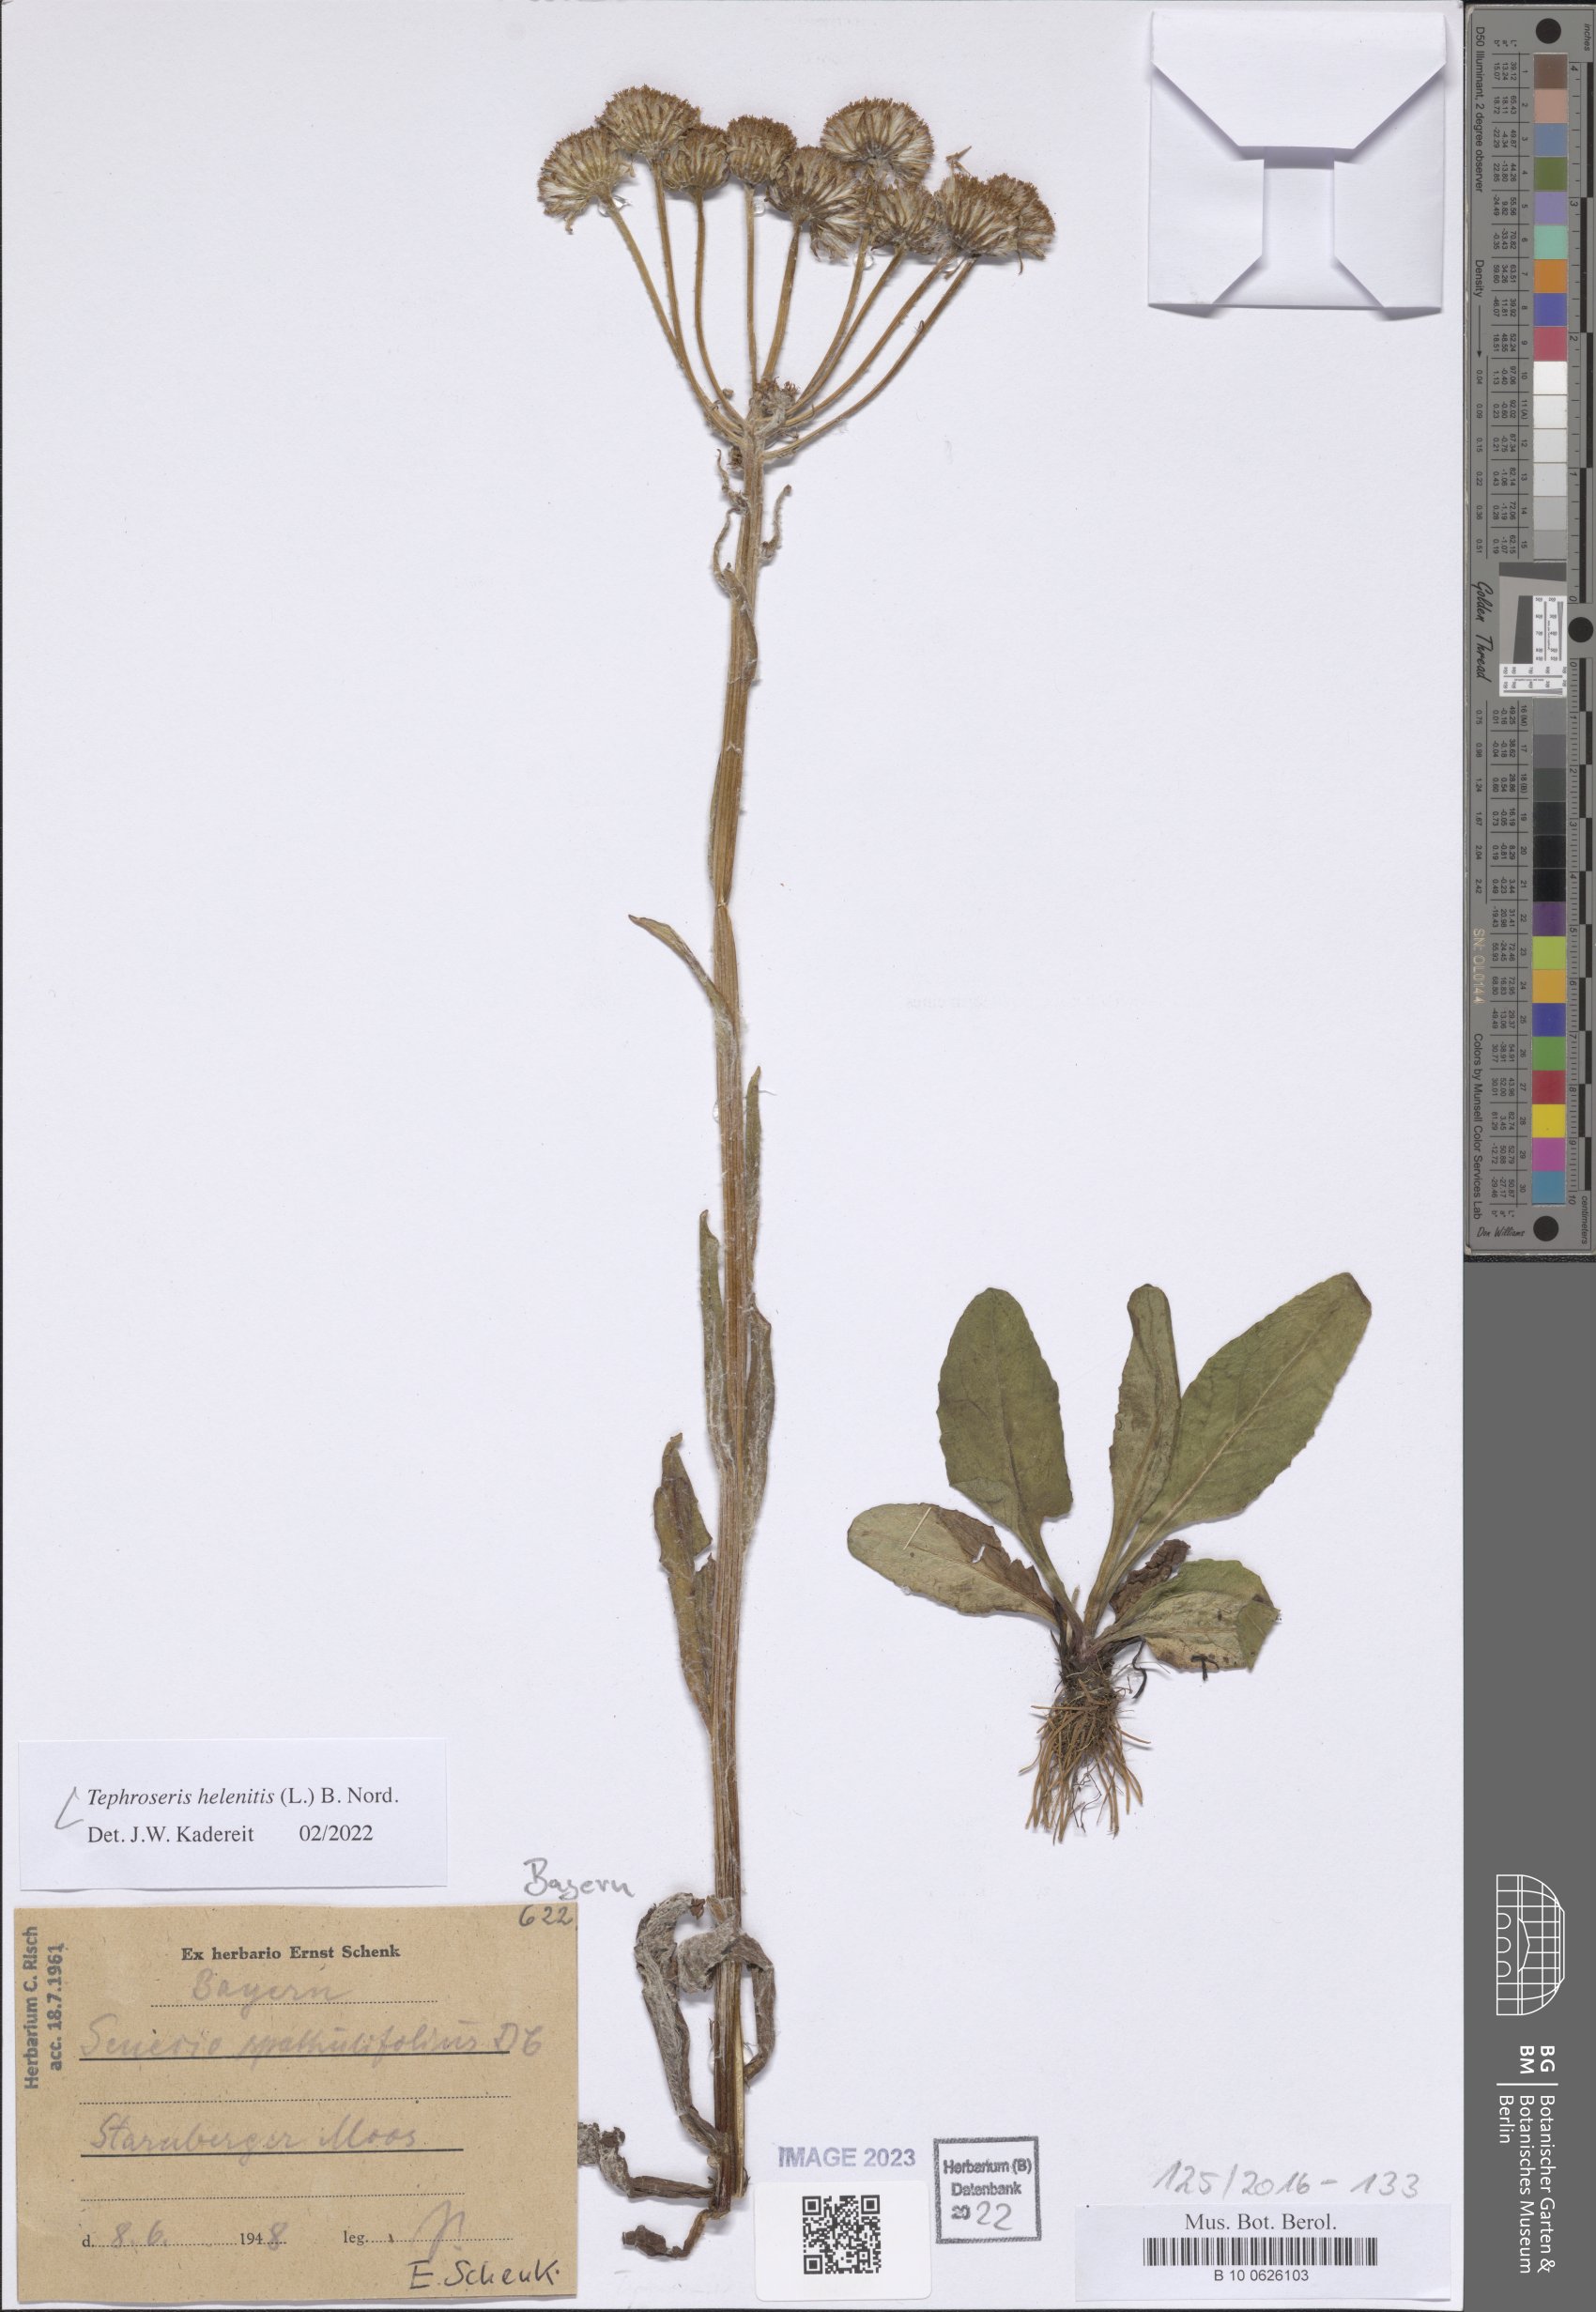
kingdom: Plantae
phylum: Tracheophyta
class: Magnoliopsida
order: Asterales
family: Asteraceae
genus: Tephroseris
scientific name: Tephroseris helenitis
